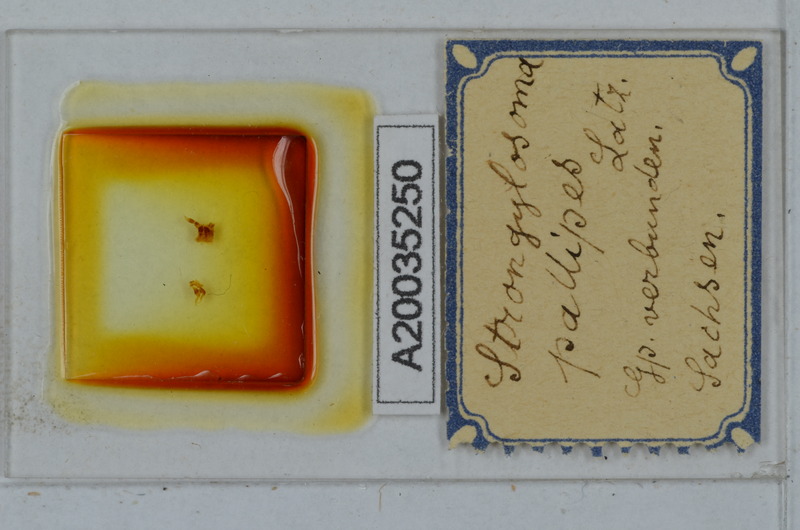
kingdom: Animalia
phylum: Arthropoda
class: Diplopoda
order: Polydesmida
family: Paradoxosomatidae
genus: Strongylosoma
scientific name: Strongylosoma stigmatosus
